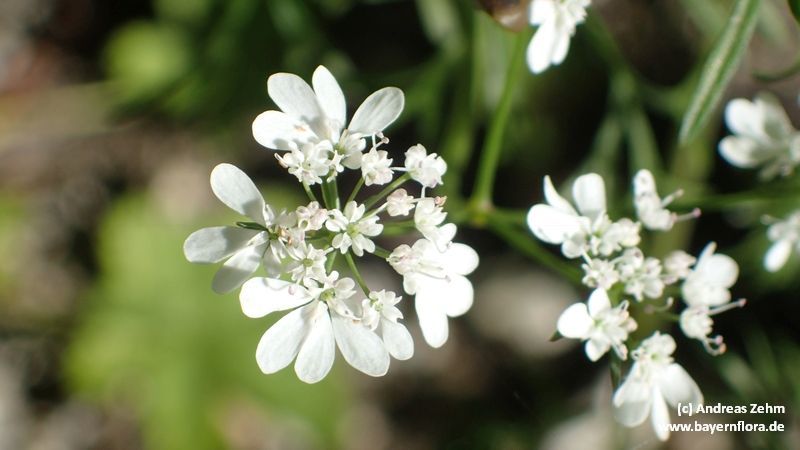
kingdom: Plantae
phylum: Tracheophyta
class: Magnoliopsida
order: Apiales
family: Apiaceae
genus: Coriandrum
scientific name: Coriandrum sativum
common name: Coriander
